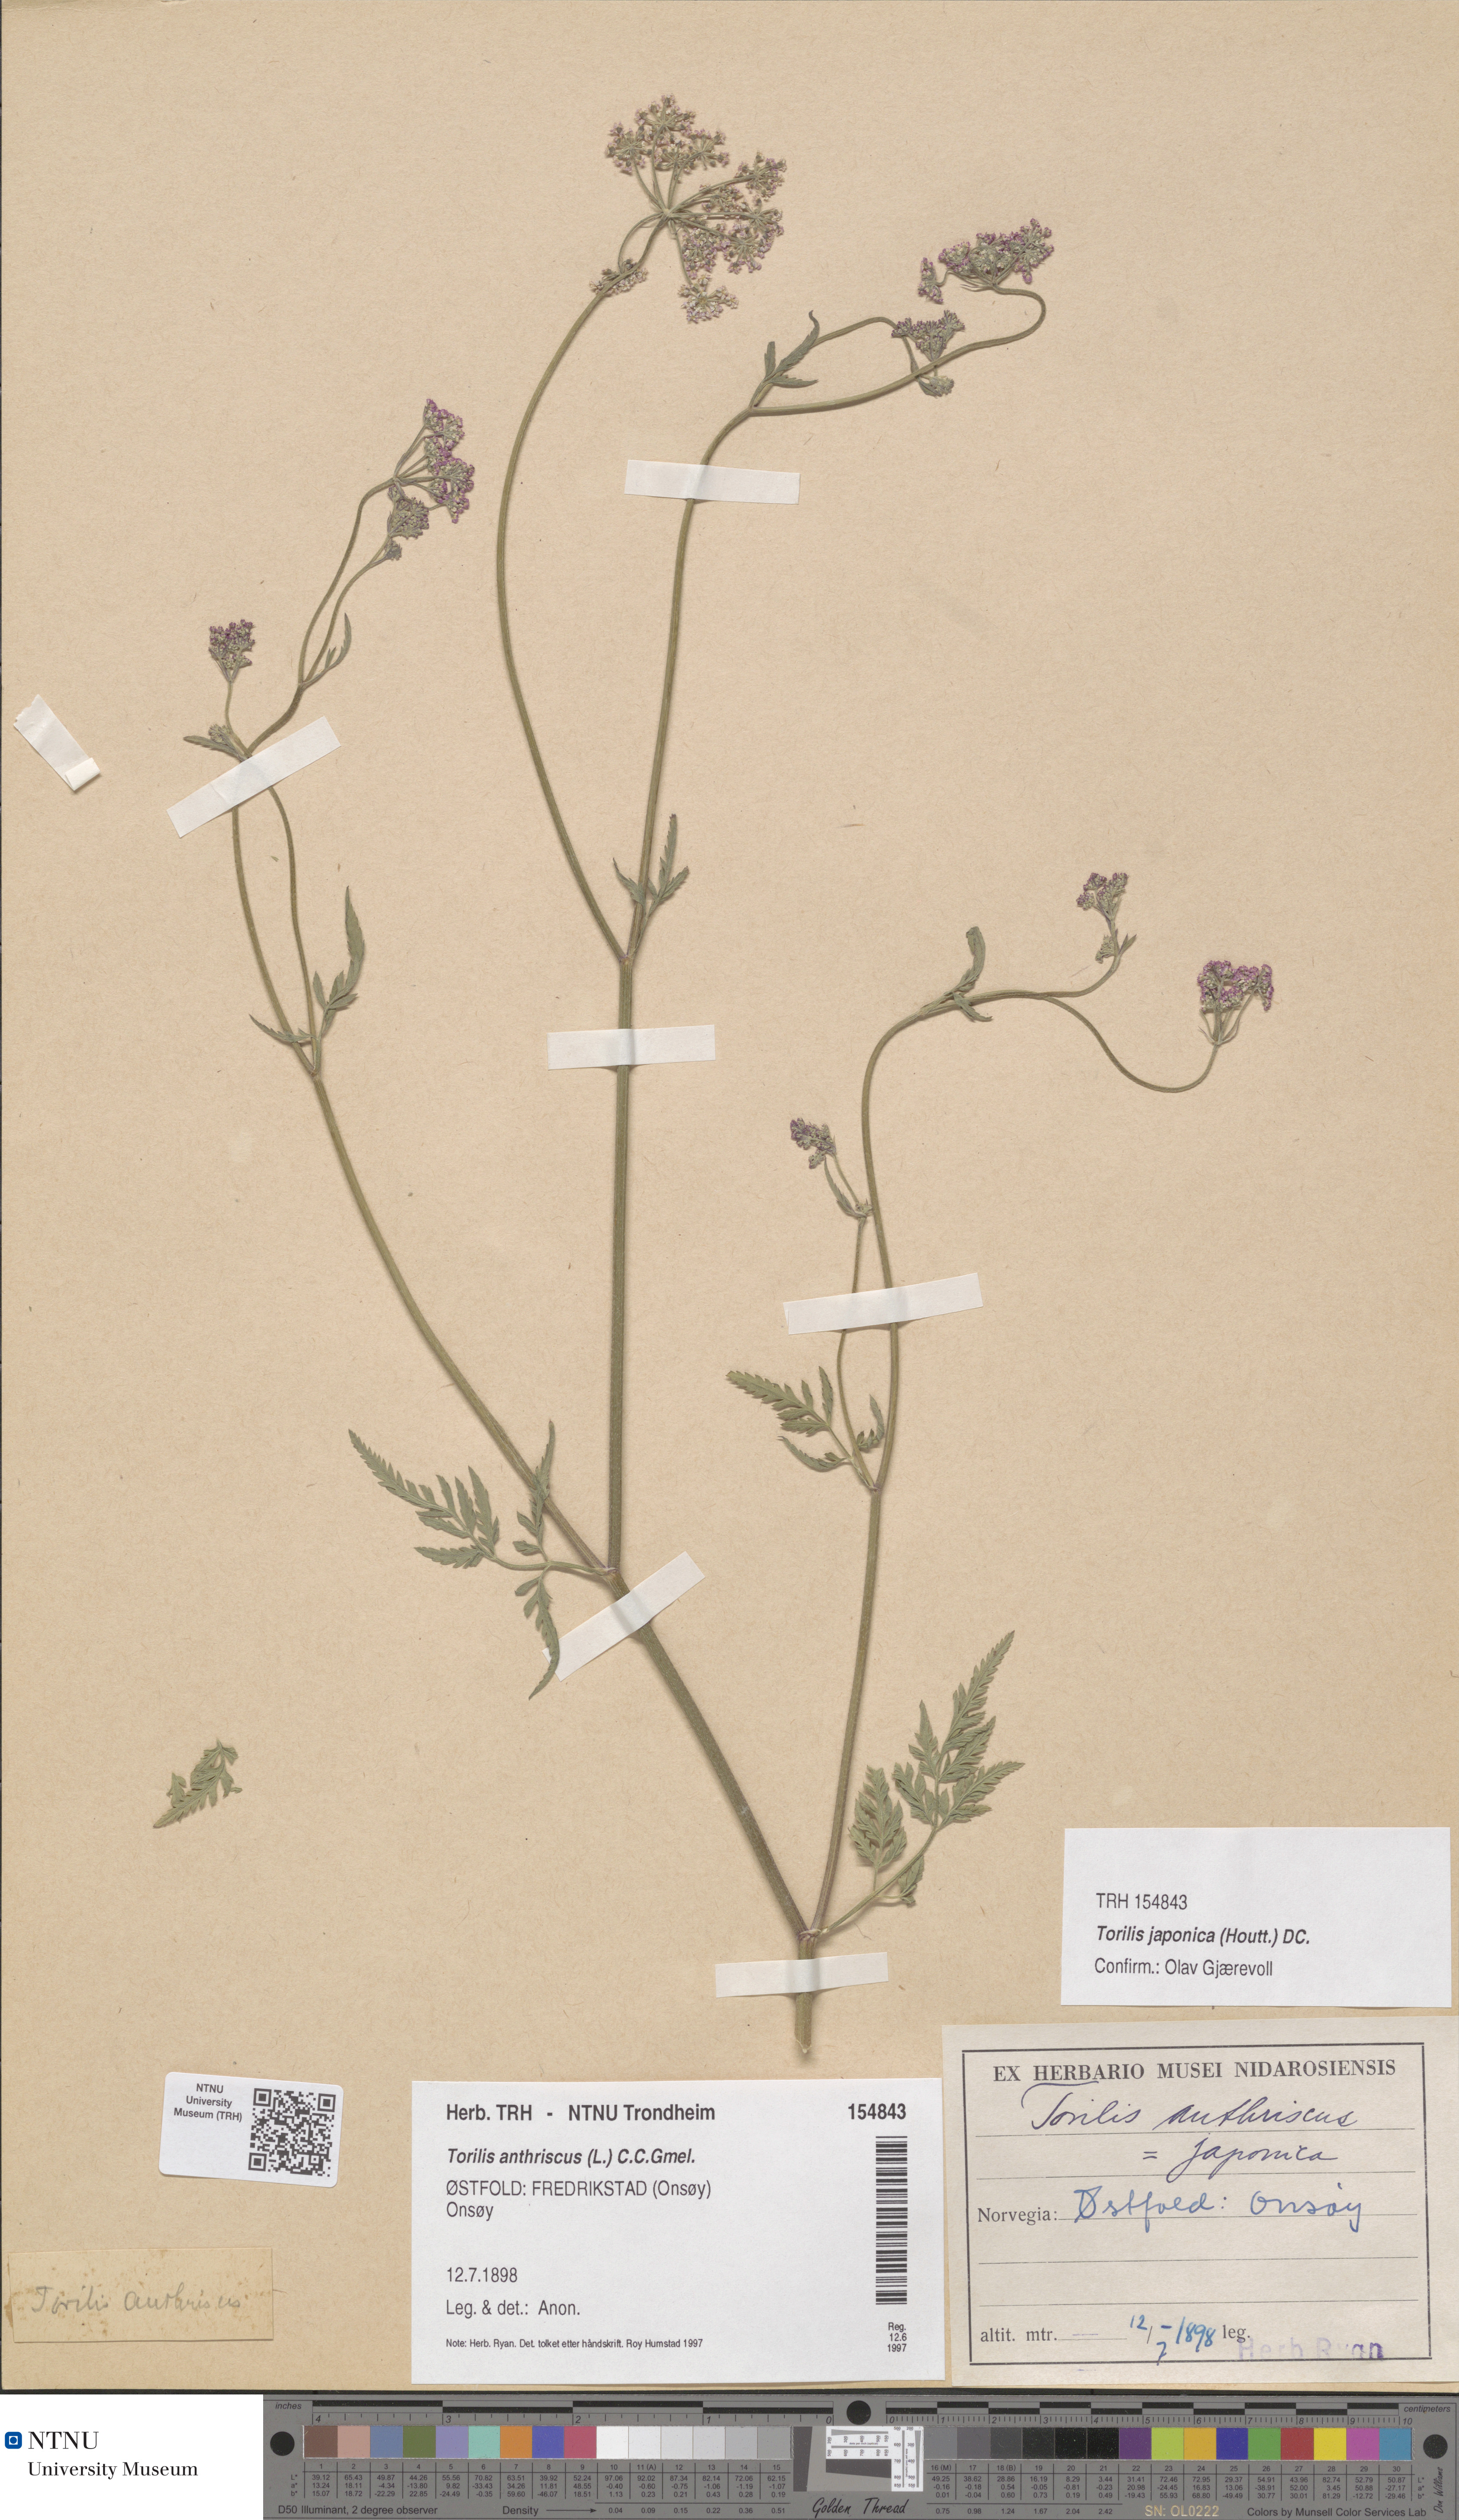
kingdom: Plantae
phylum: Tracheophyta
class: Magnoliopsida
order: Apiales
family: Apiaceae
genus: Torilis
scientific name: Torilis japonica
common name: Upright hedge-parsley
